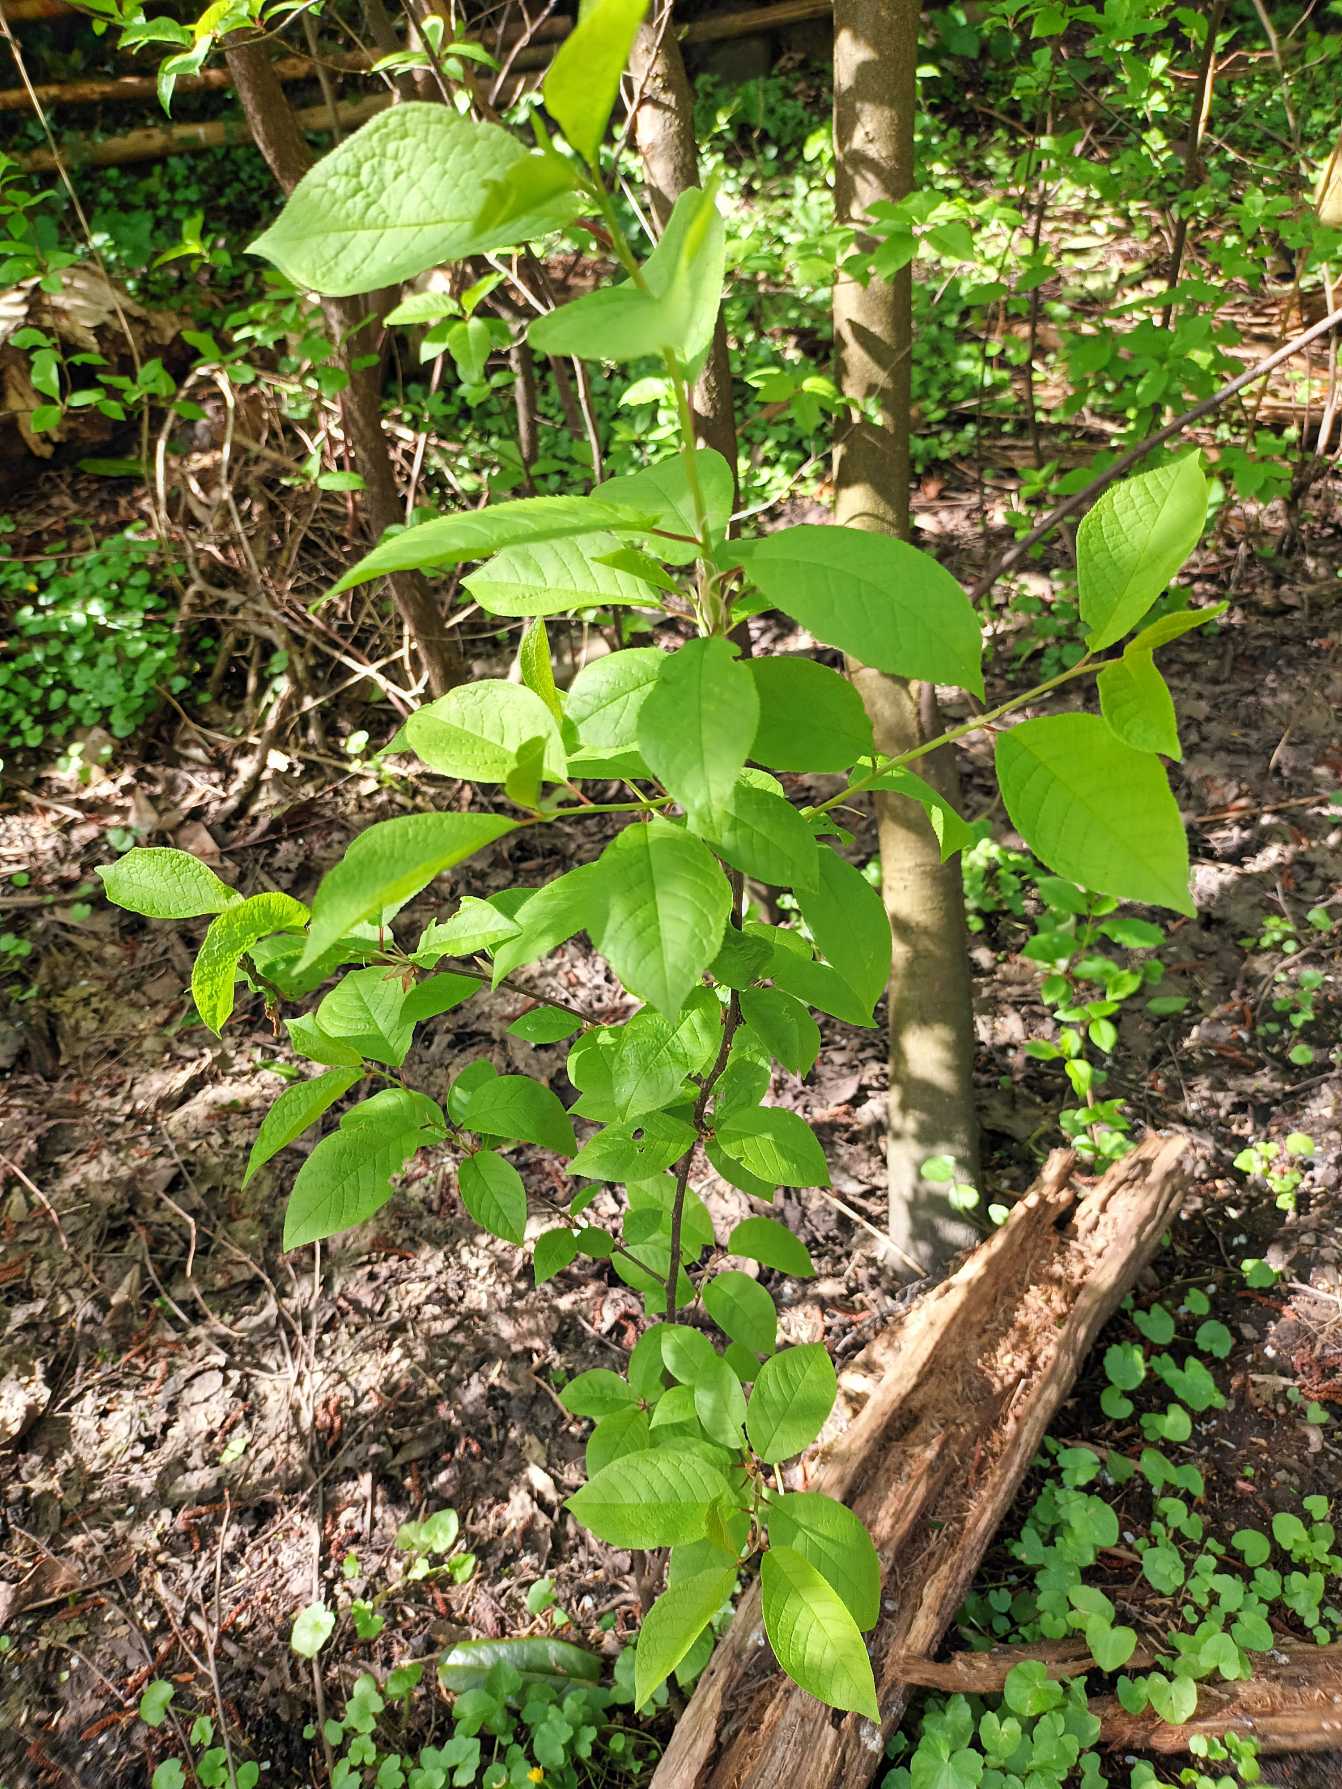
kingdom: Plantae
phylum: Tracheophyta
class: Magnoliopsida
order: Rosales
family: Rosaceae
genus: Prunus
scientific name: Prunus padus
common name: Almindelig hæg
